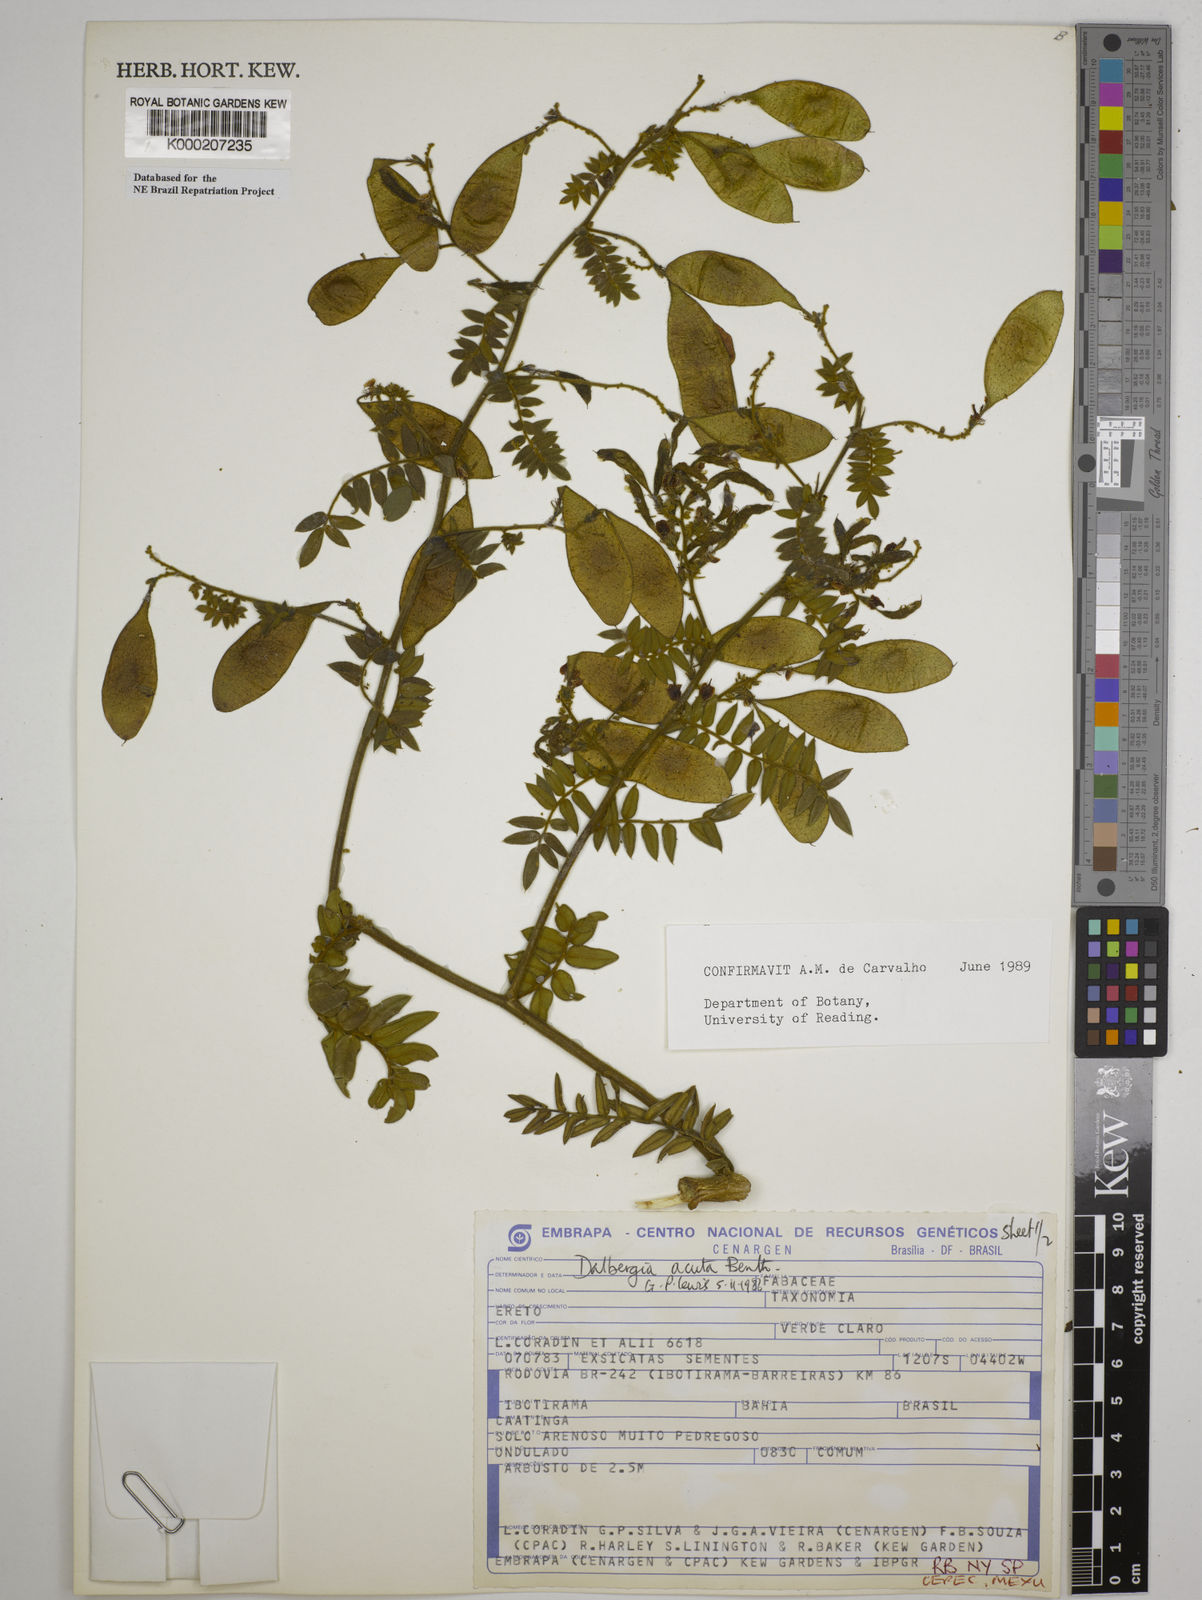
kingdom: Plantae
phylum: Tracheophyta
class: Magnoliopsida
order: Fabales
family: Fabaceae
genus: Dalbergia
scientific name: Dalbergia acuta
